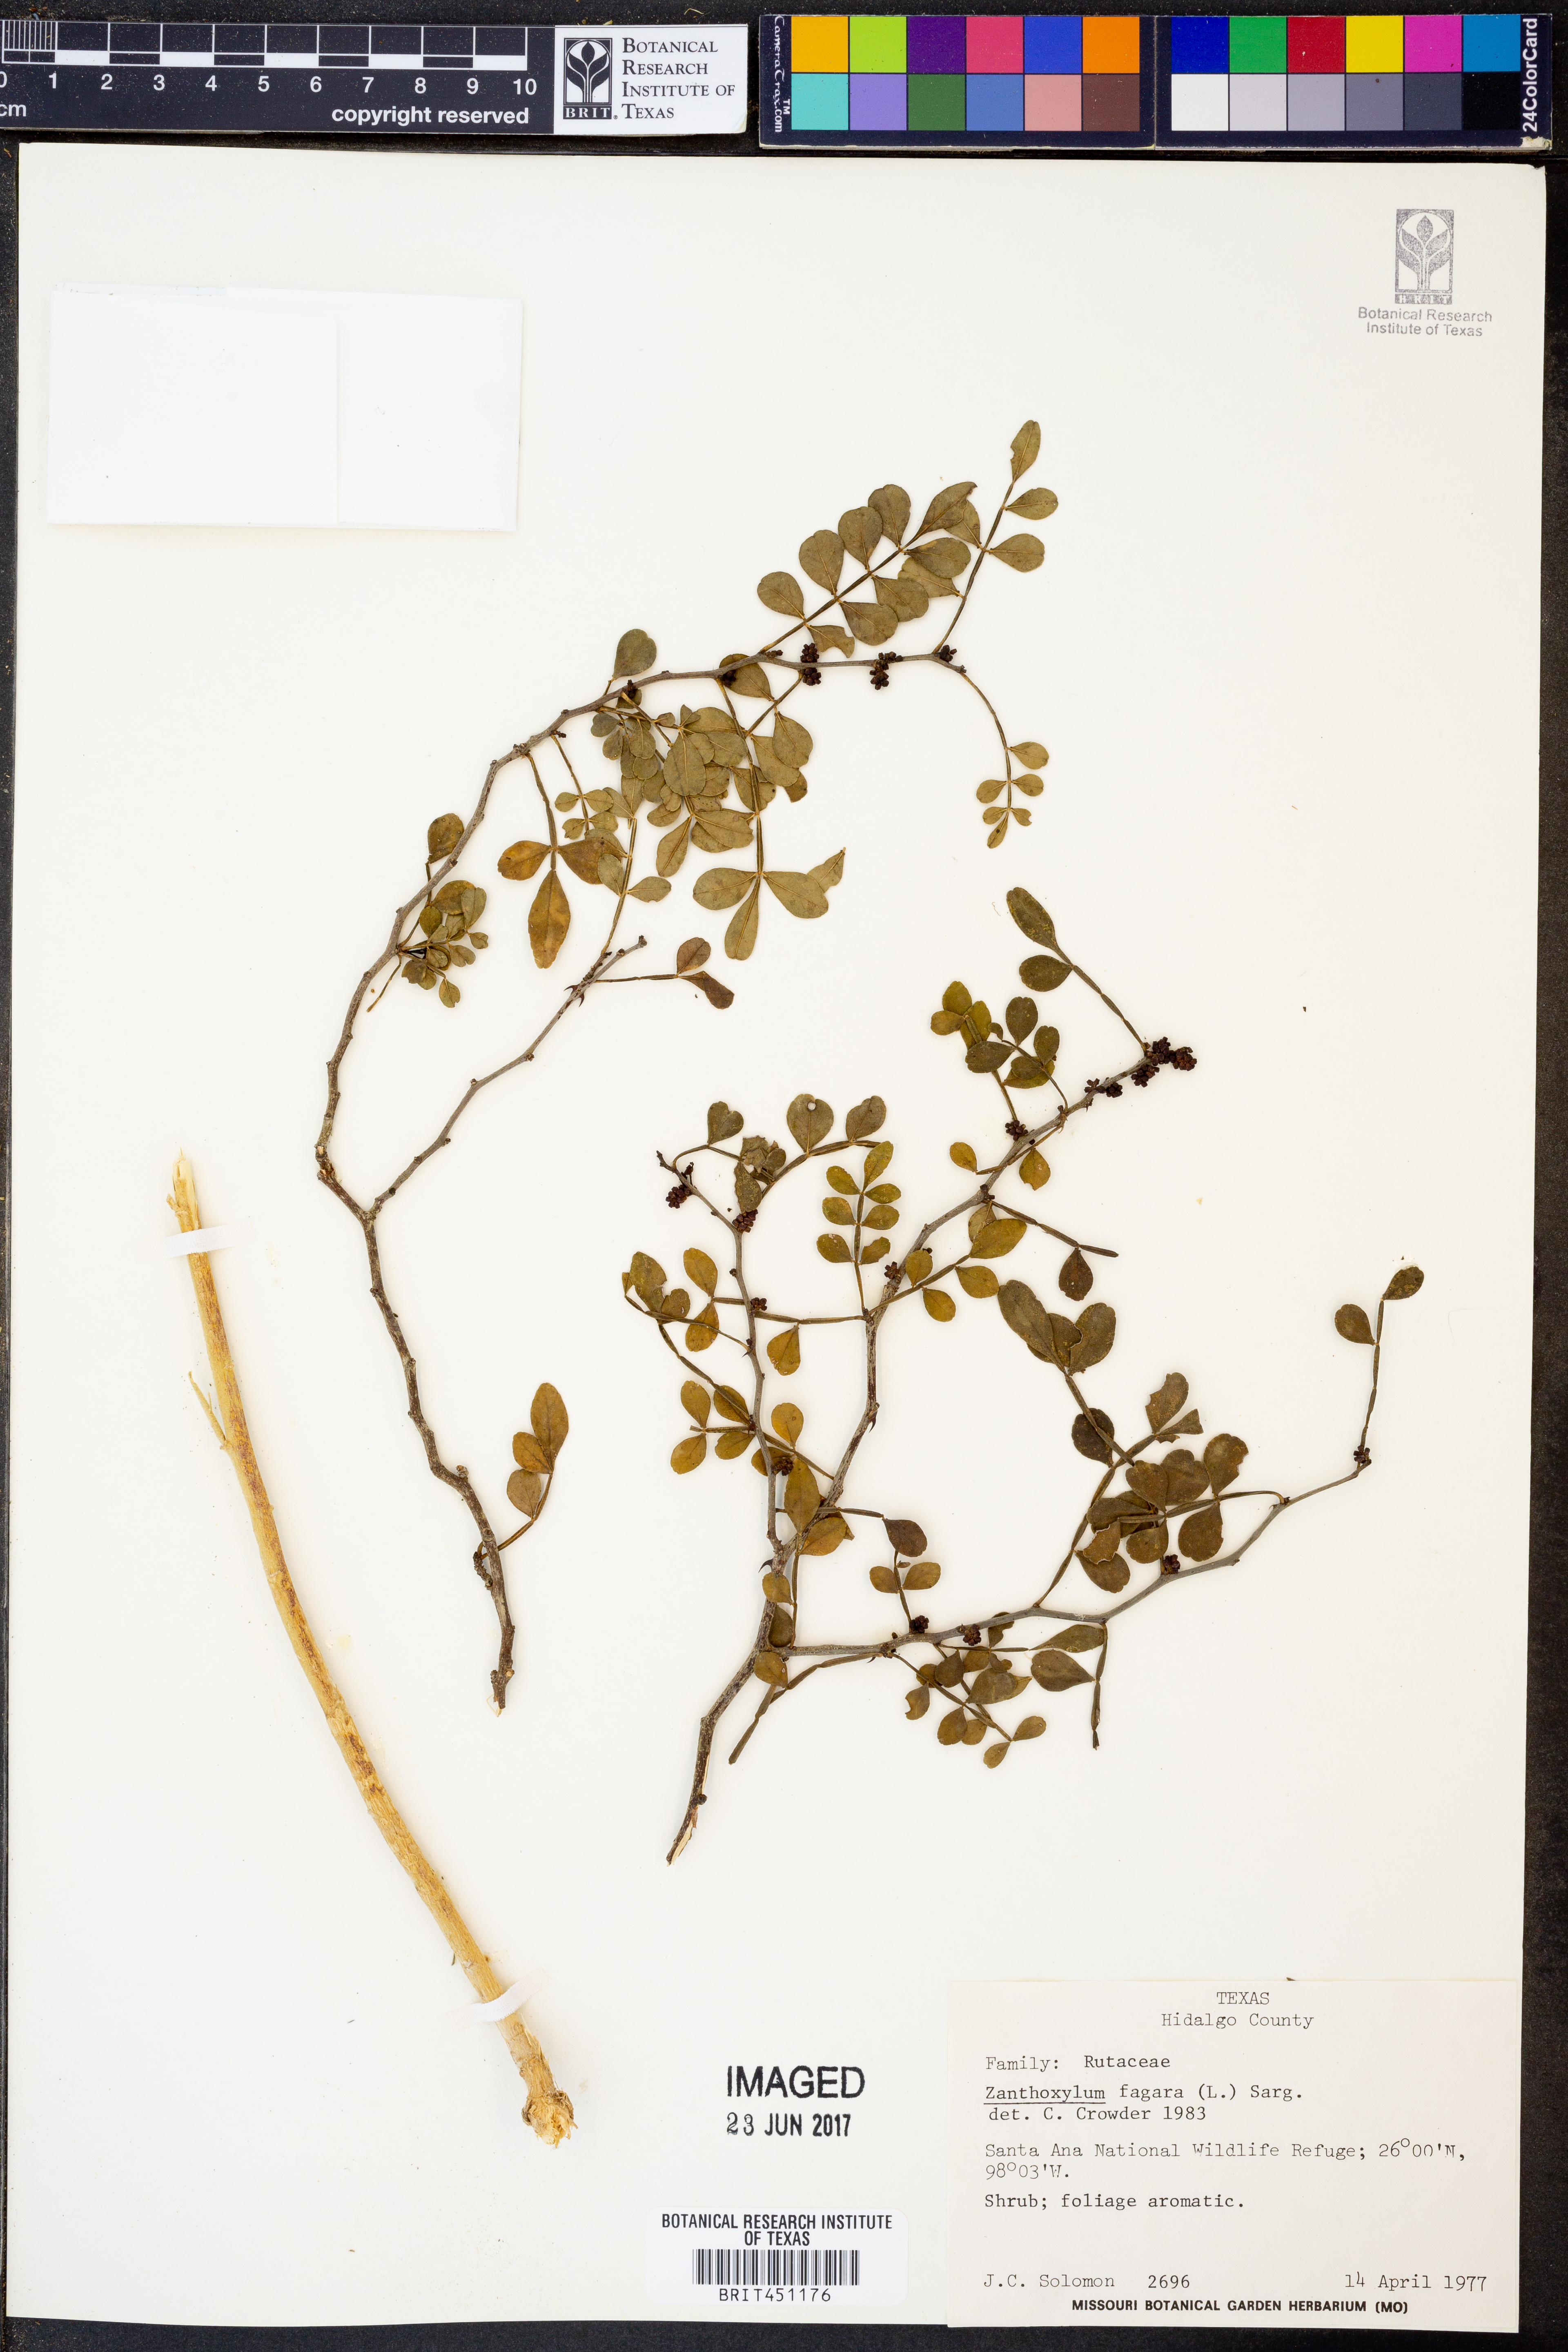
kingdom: Plantae
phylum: Tracheophyta
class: Magnoliopsida
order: Sapindales
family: Rutaceae
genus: Zanthoxylum
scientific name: Zanthoxylum fagara
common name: Lime prickly-ash
